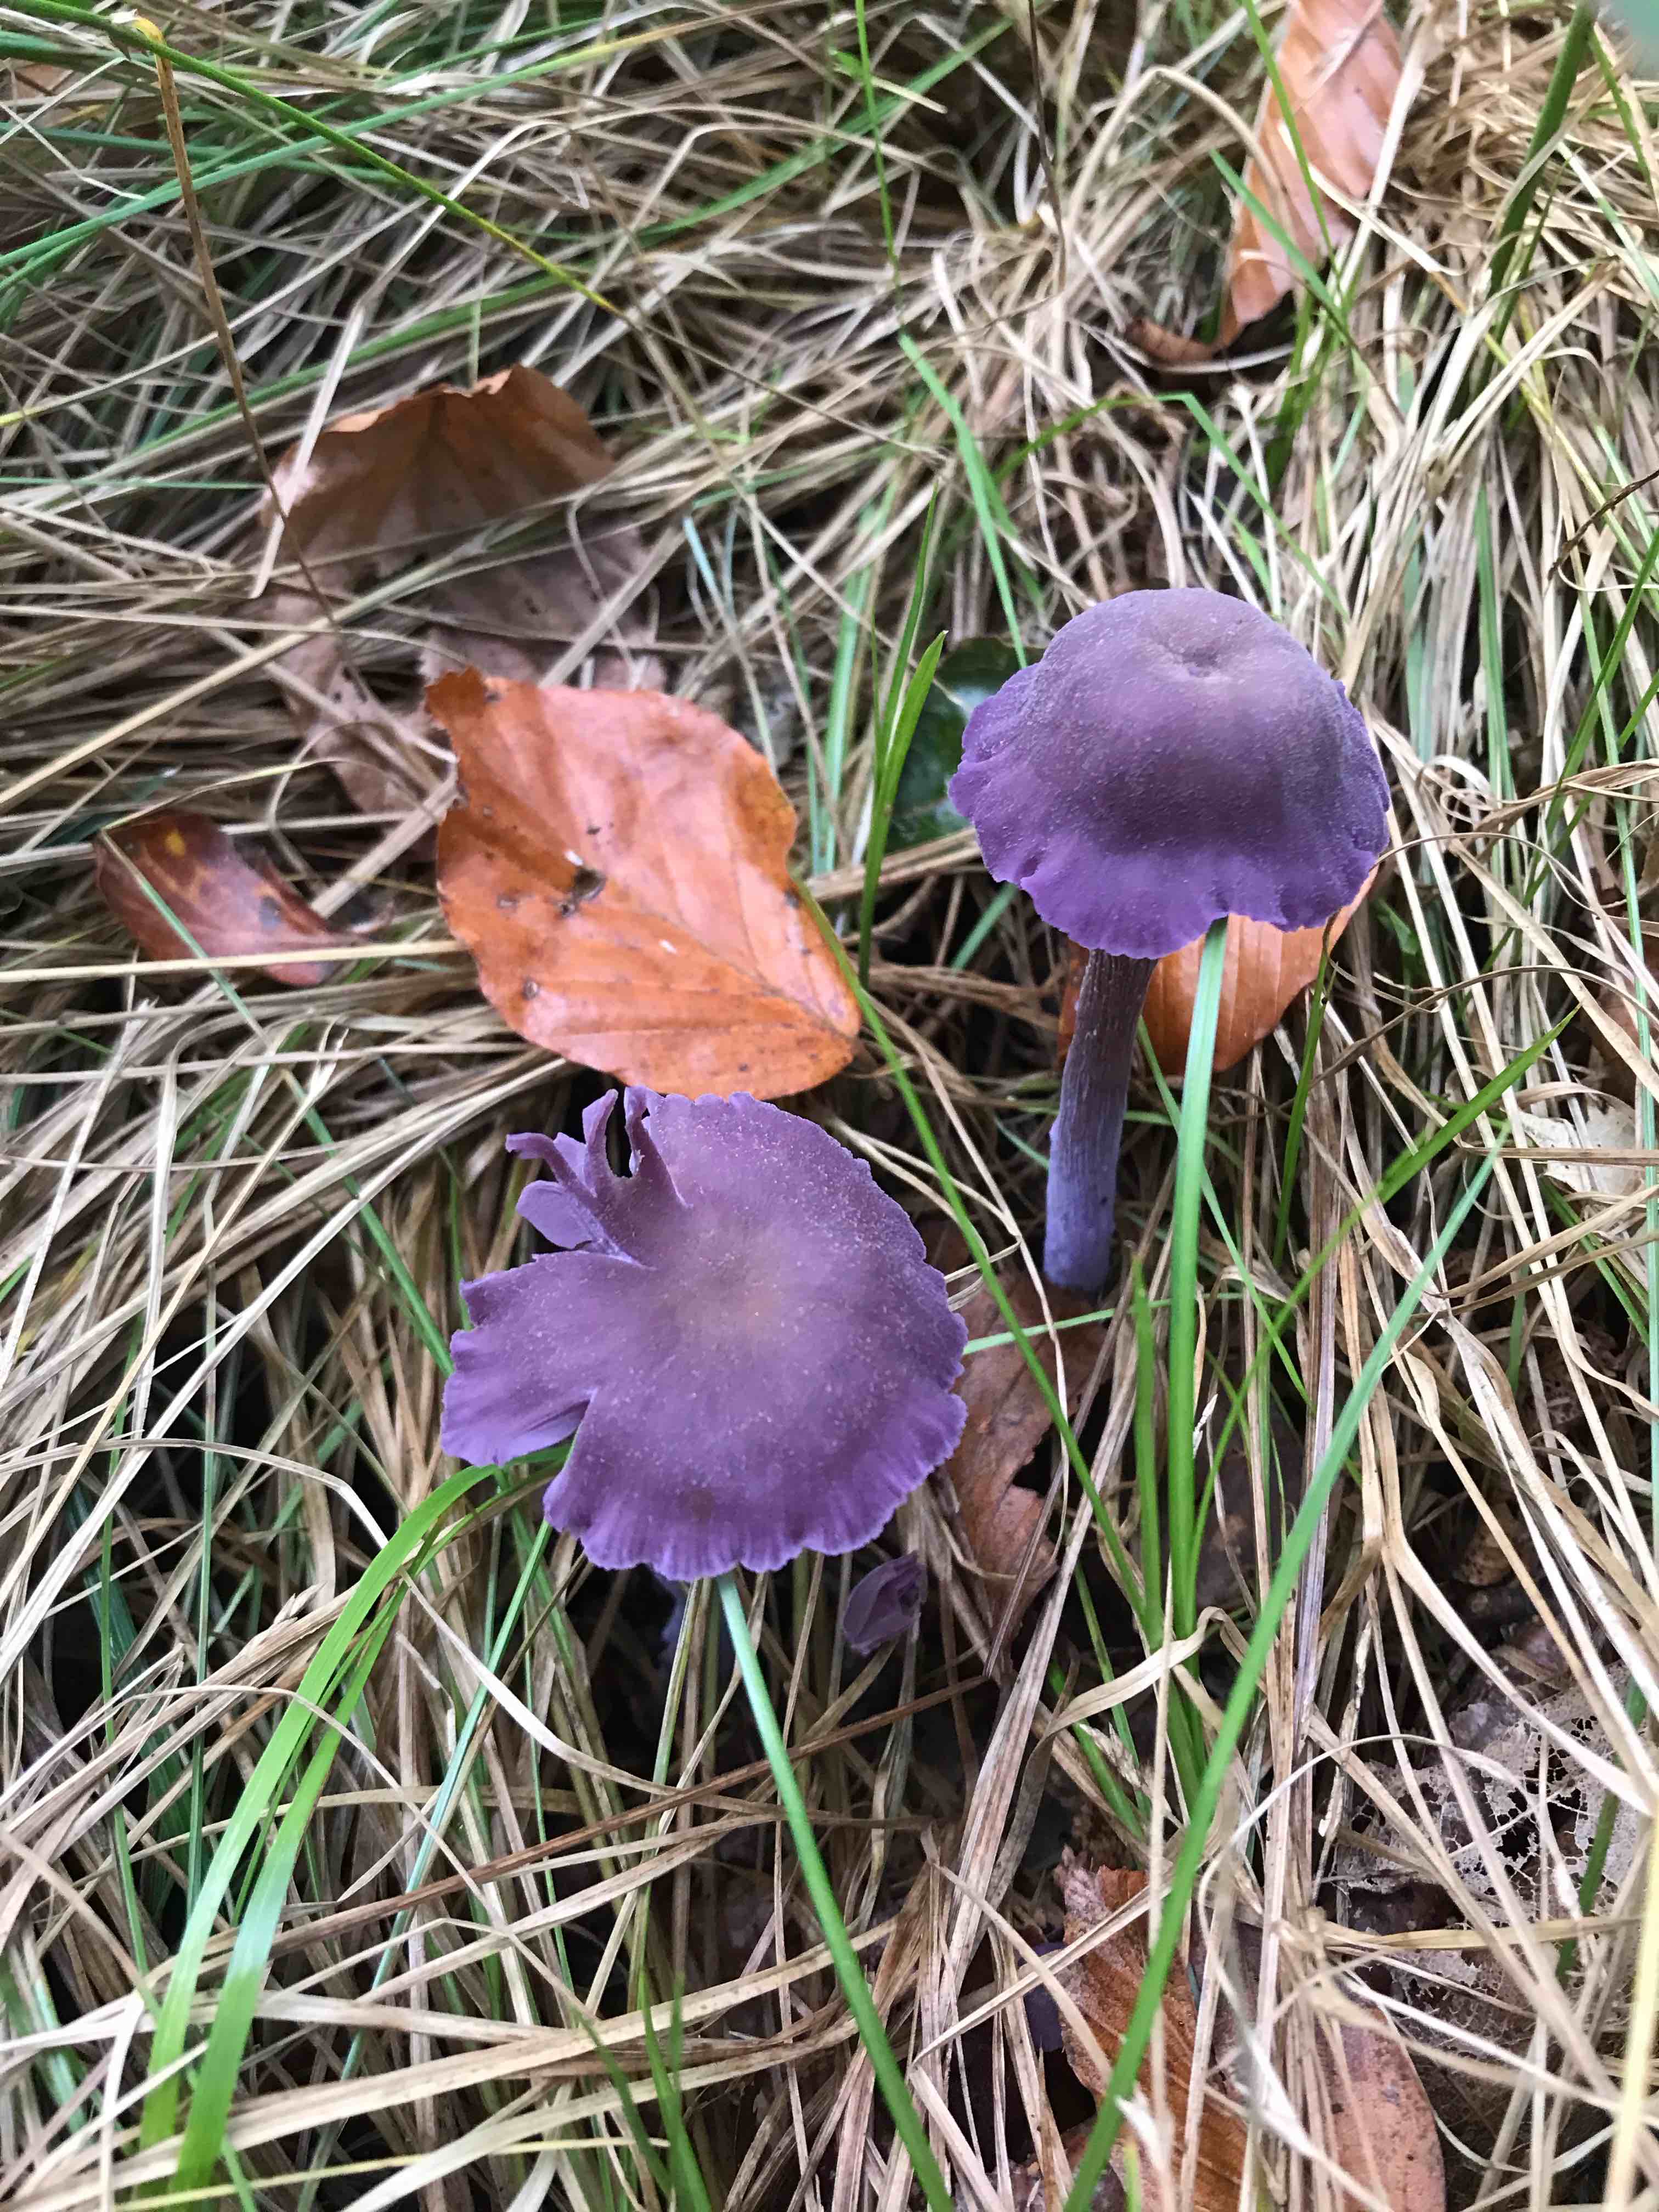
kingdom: Fungi
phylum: Basidiomycota
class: Agaricomycetes
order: Agaricales
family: Hydnangiaceae
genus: Laccaria
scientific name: Laccaria amethystina
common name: violet ametysthat
